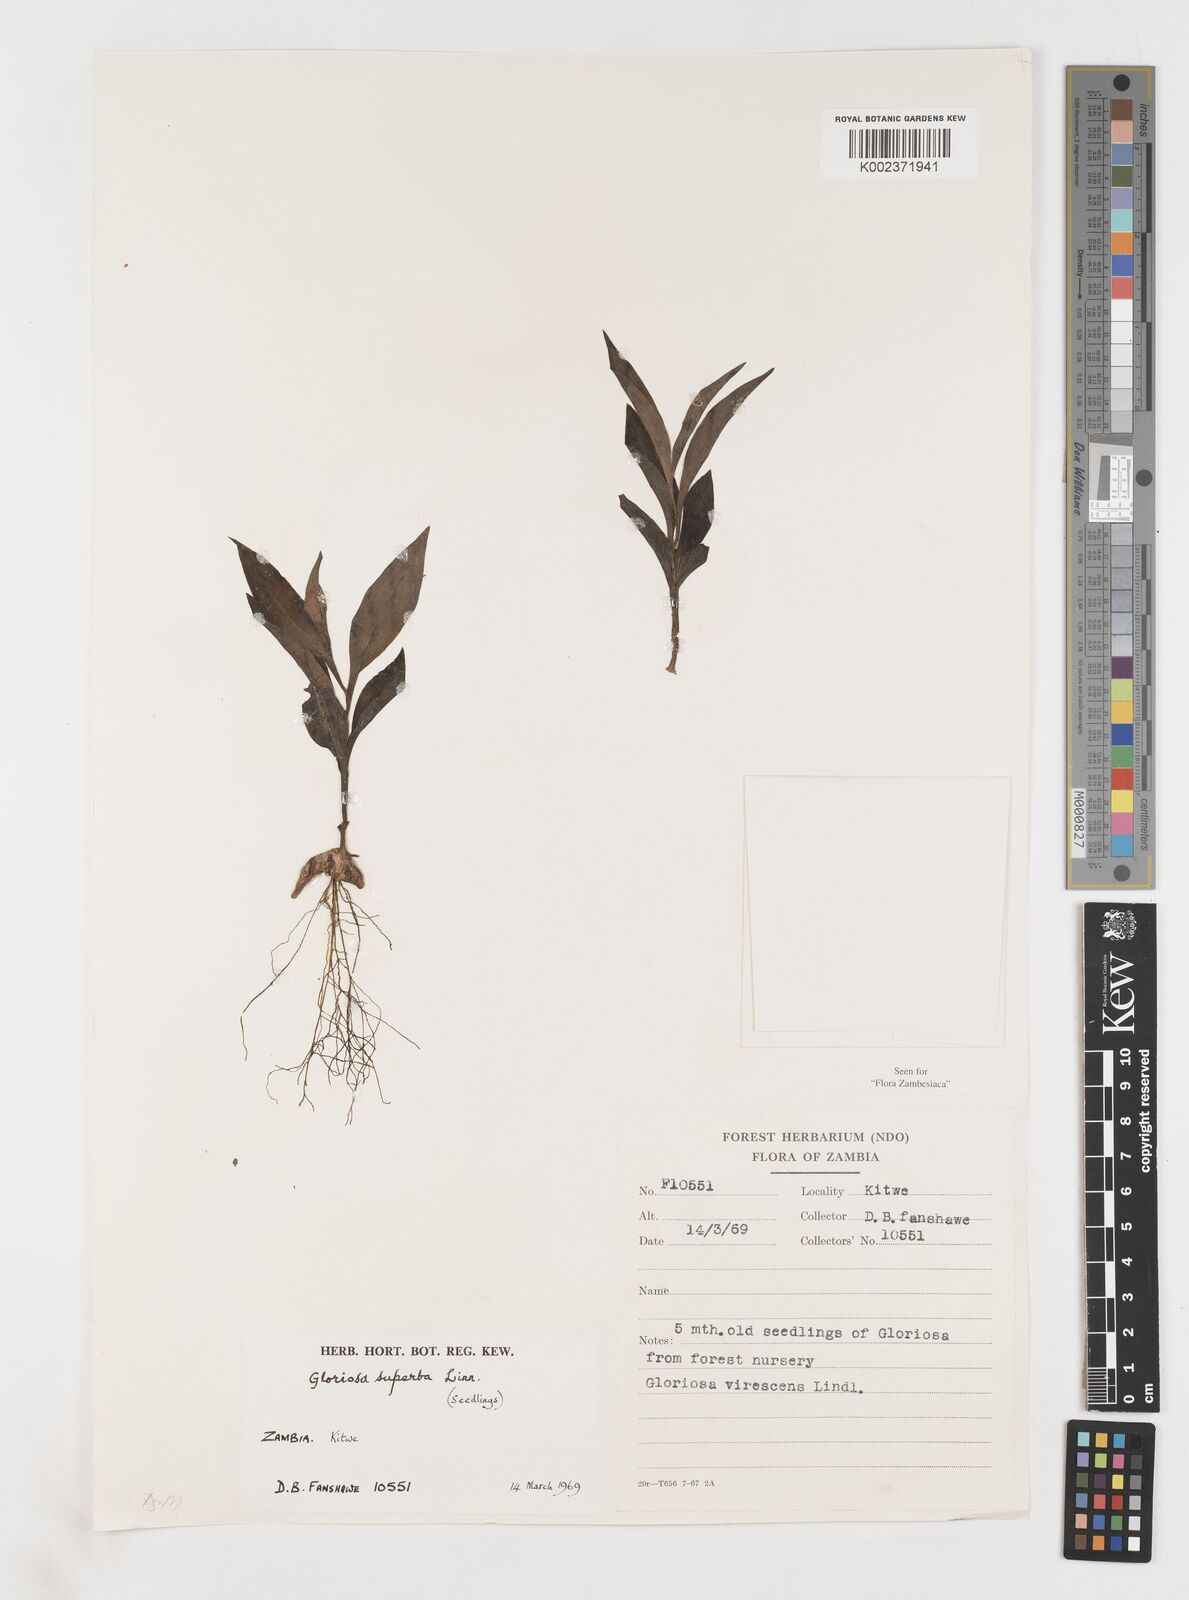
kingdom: Plantae
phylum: Tracheophyta
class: Liliopsida
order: Liliales
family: Colchicaceae
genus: Gloriosa
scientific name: Gloriosa simplex
